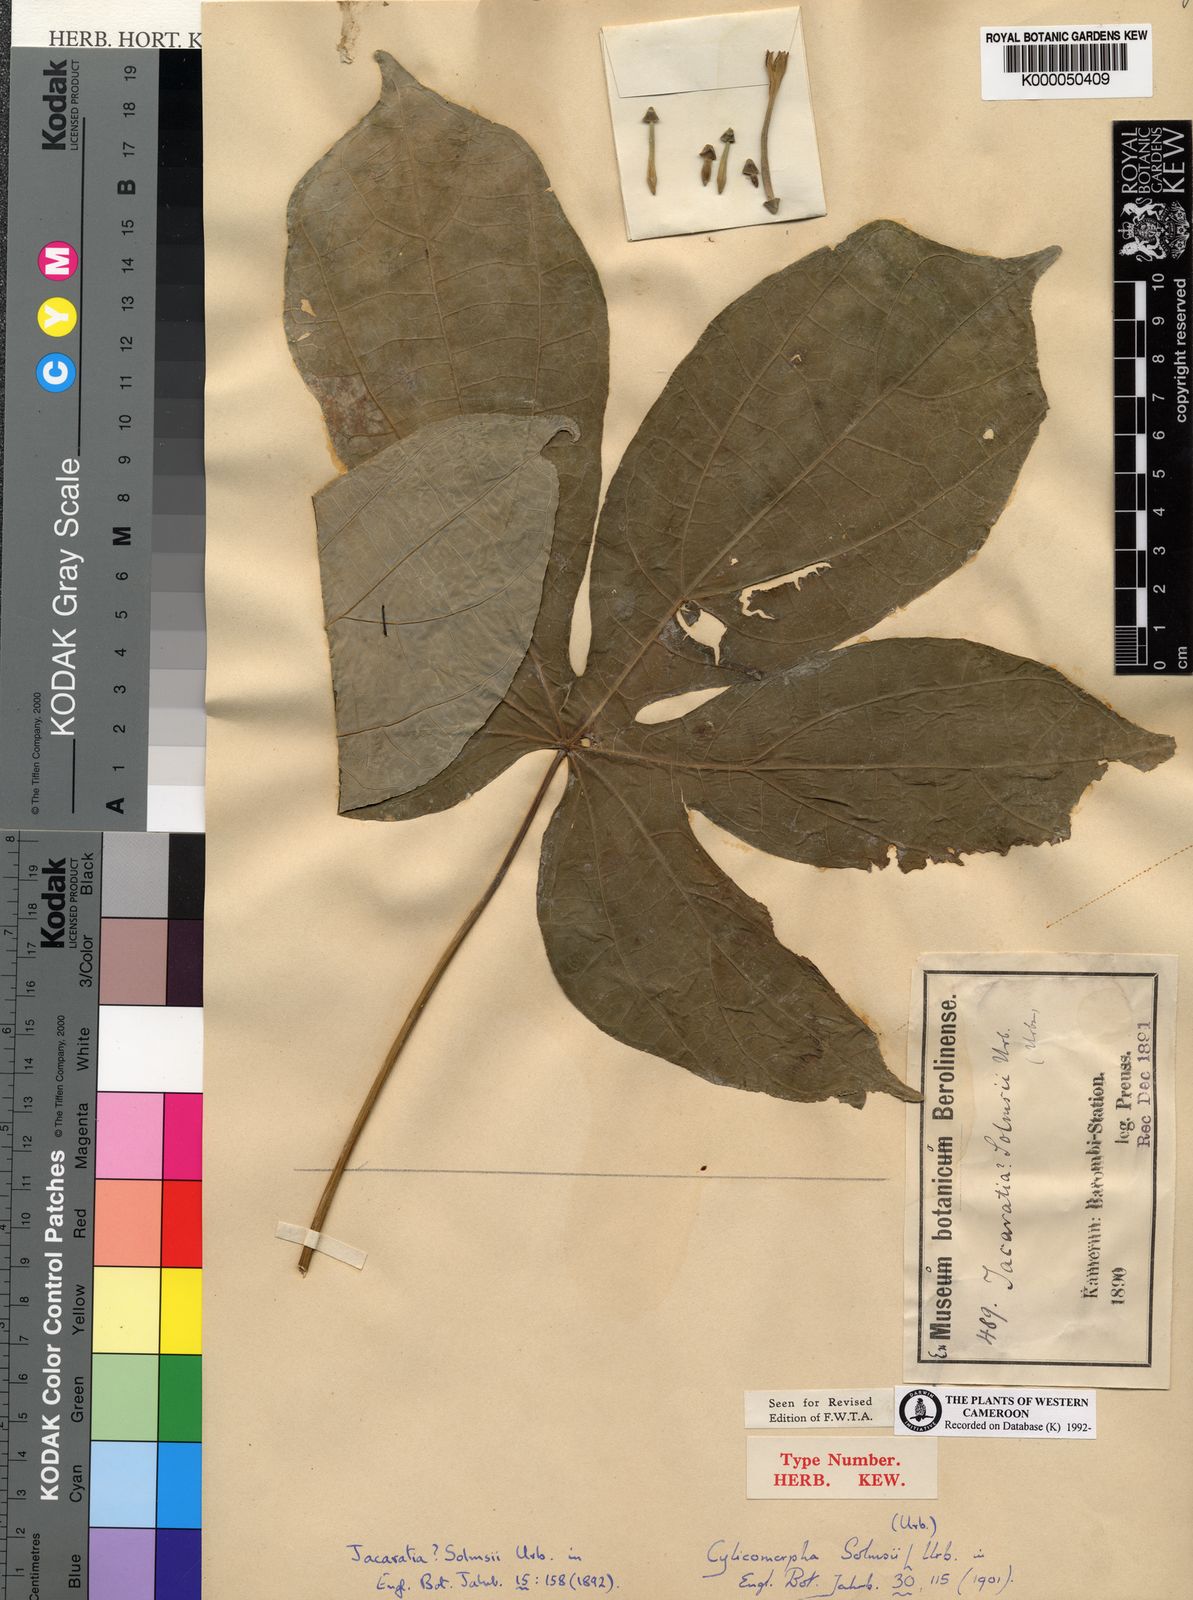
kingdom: Plantae
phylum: Tracheophyta
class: Magnoliopsida
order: Brassicales
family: Caricaceae
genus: Cylicomorpha
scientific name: Cylicomorpha solmsii
